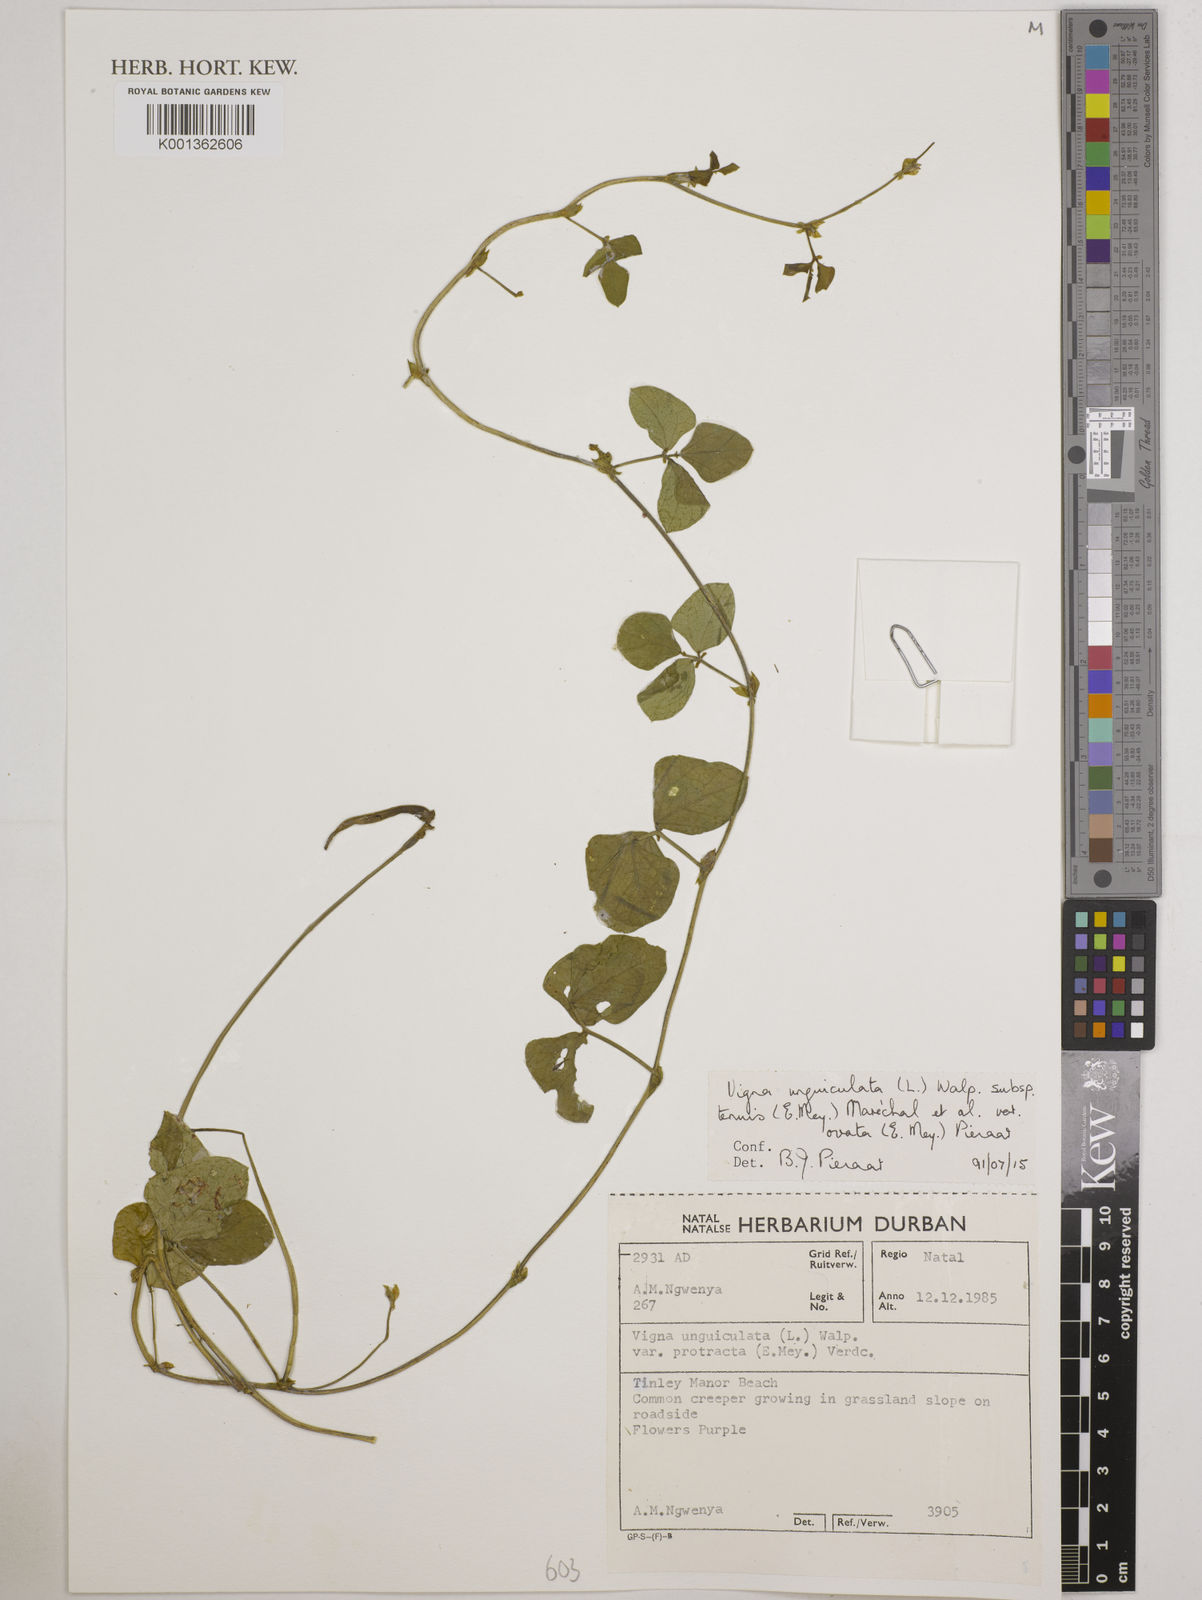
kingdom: Plantae
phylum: Tracheophyta
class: Magnoliopsida
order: Fabales
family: Fabaceae
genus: Vigna
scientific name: Vigna
